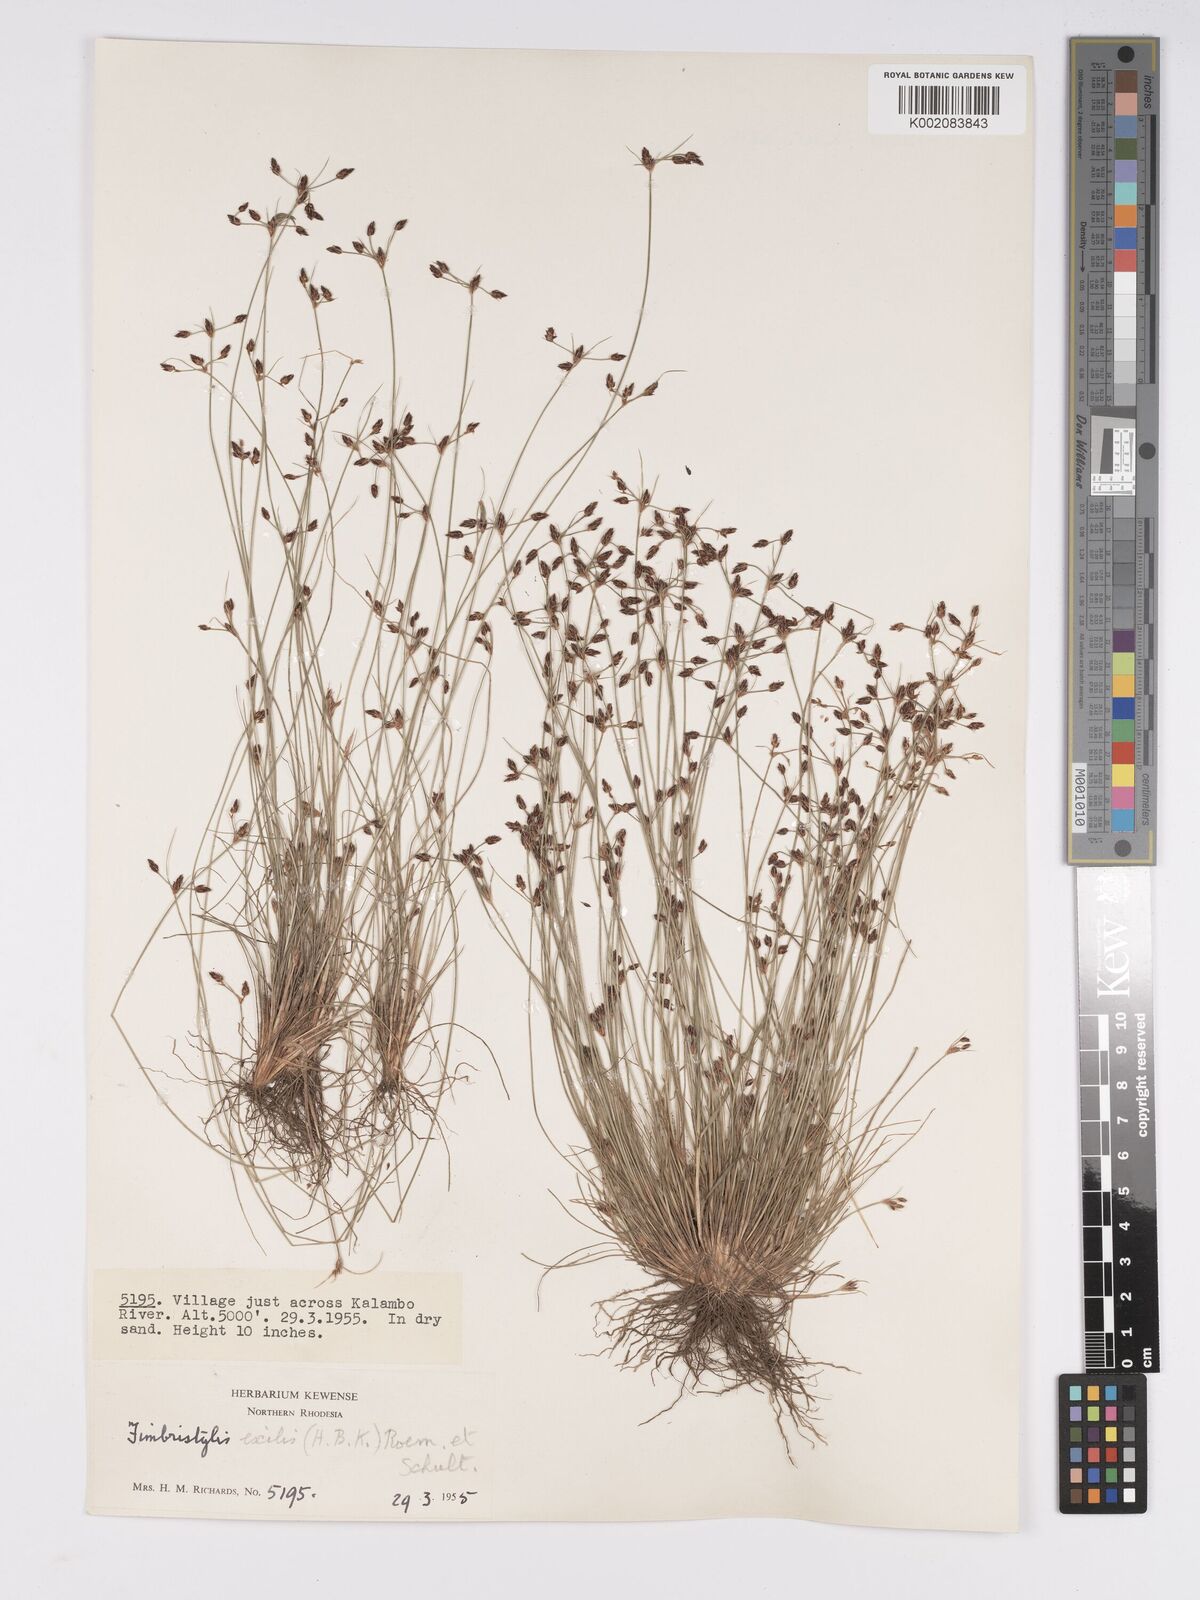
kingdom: Plantae
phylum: Tracheophyta
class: Liliopsida
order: Poales
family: Cyperaceae
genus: Bulbostylis
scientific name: Bulbostylis hispidula
